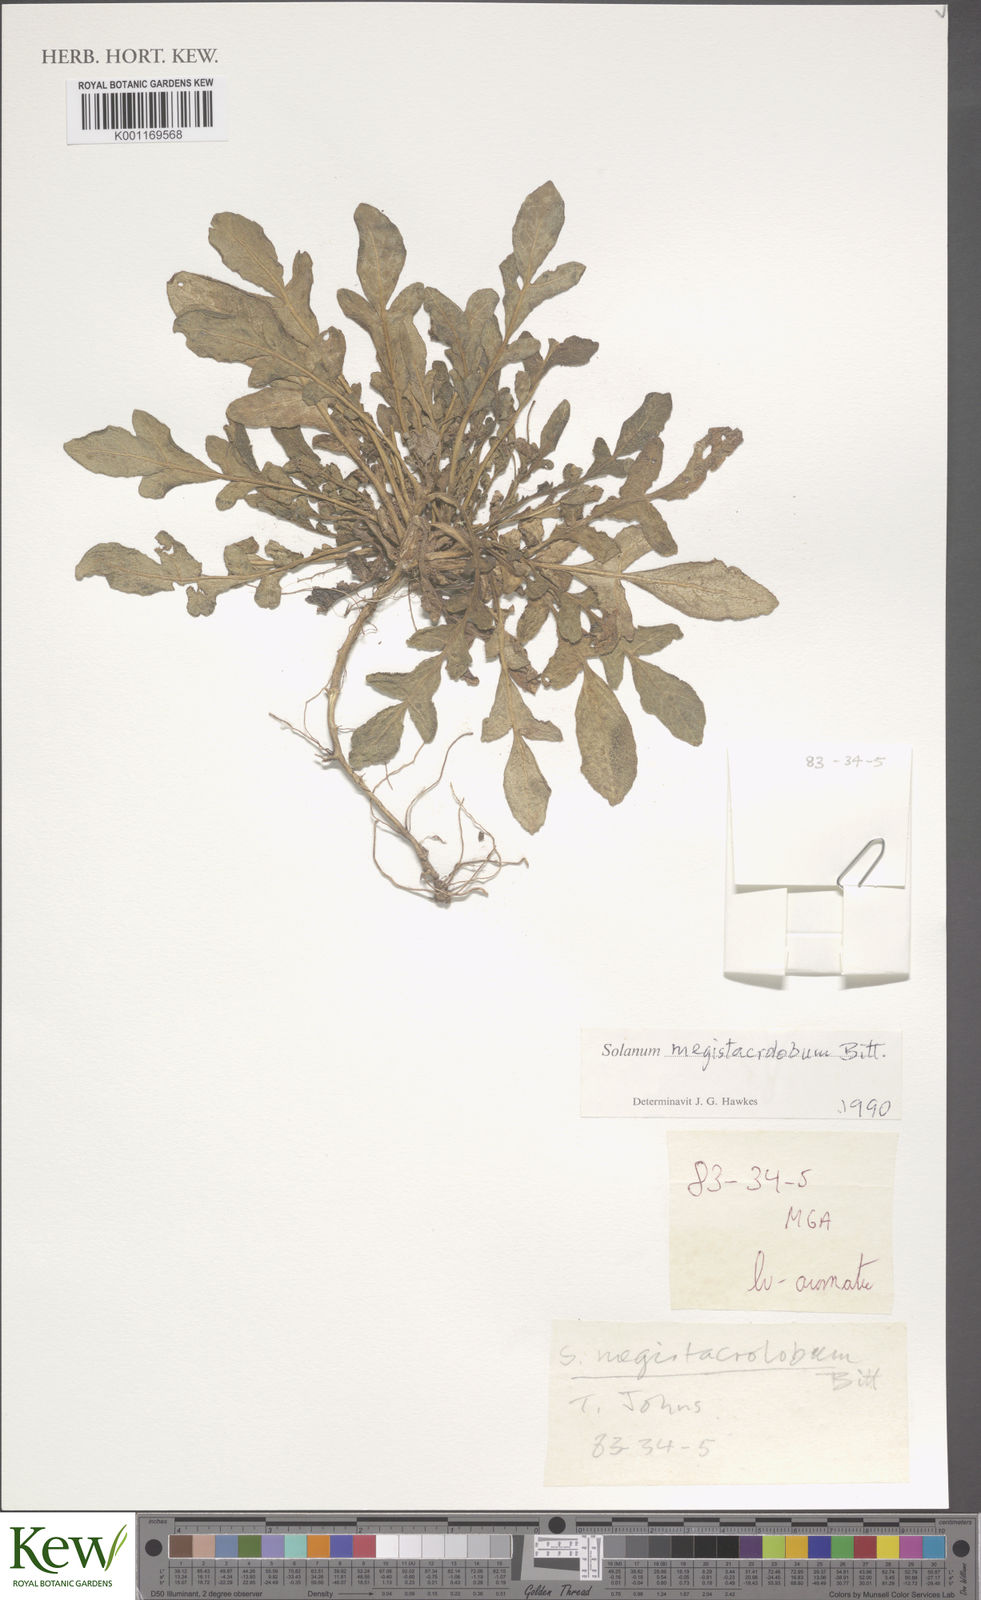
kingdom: Plantae
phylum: Tracheophyta
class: Magnoliopsida
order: Solanales
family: Solanaceae
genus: Solanum
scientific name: Solanum boliviense
